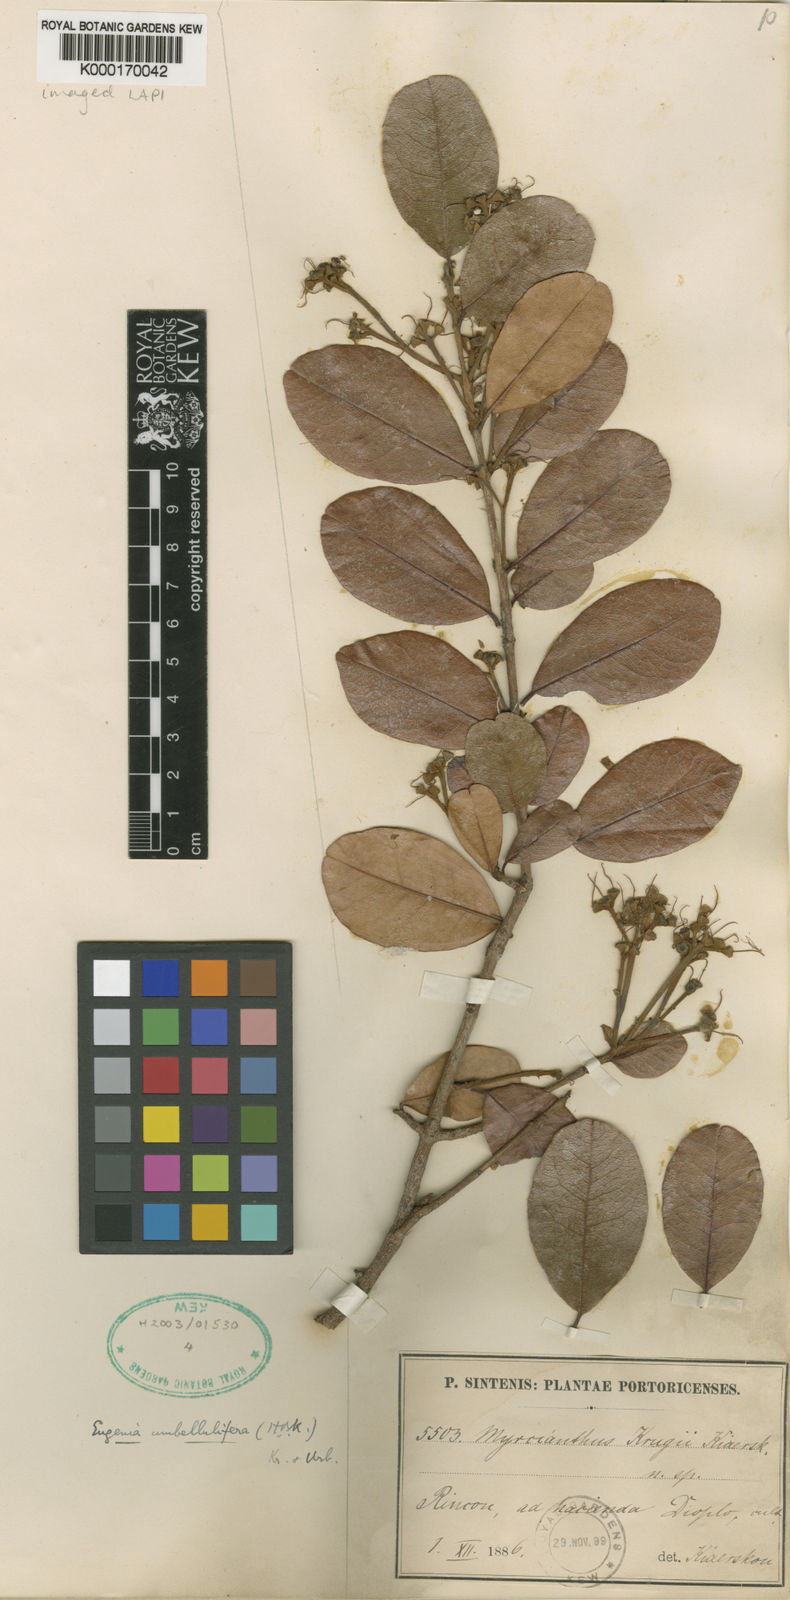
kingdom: Plantae
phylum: Tracheophyta
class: Magnoliopsida
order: Myrtales
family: Myrtaceae
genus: Pseudanamomis
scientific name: Pseudanamomis umbellulifera
